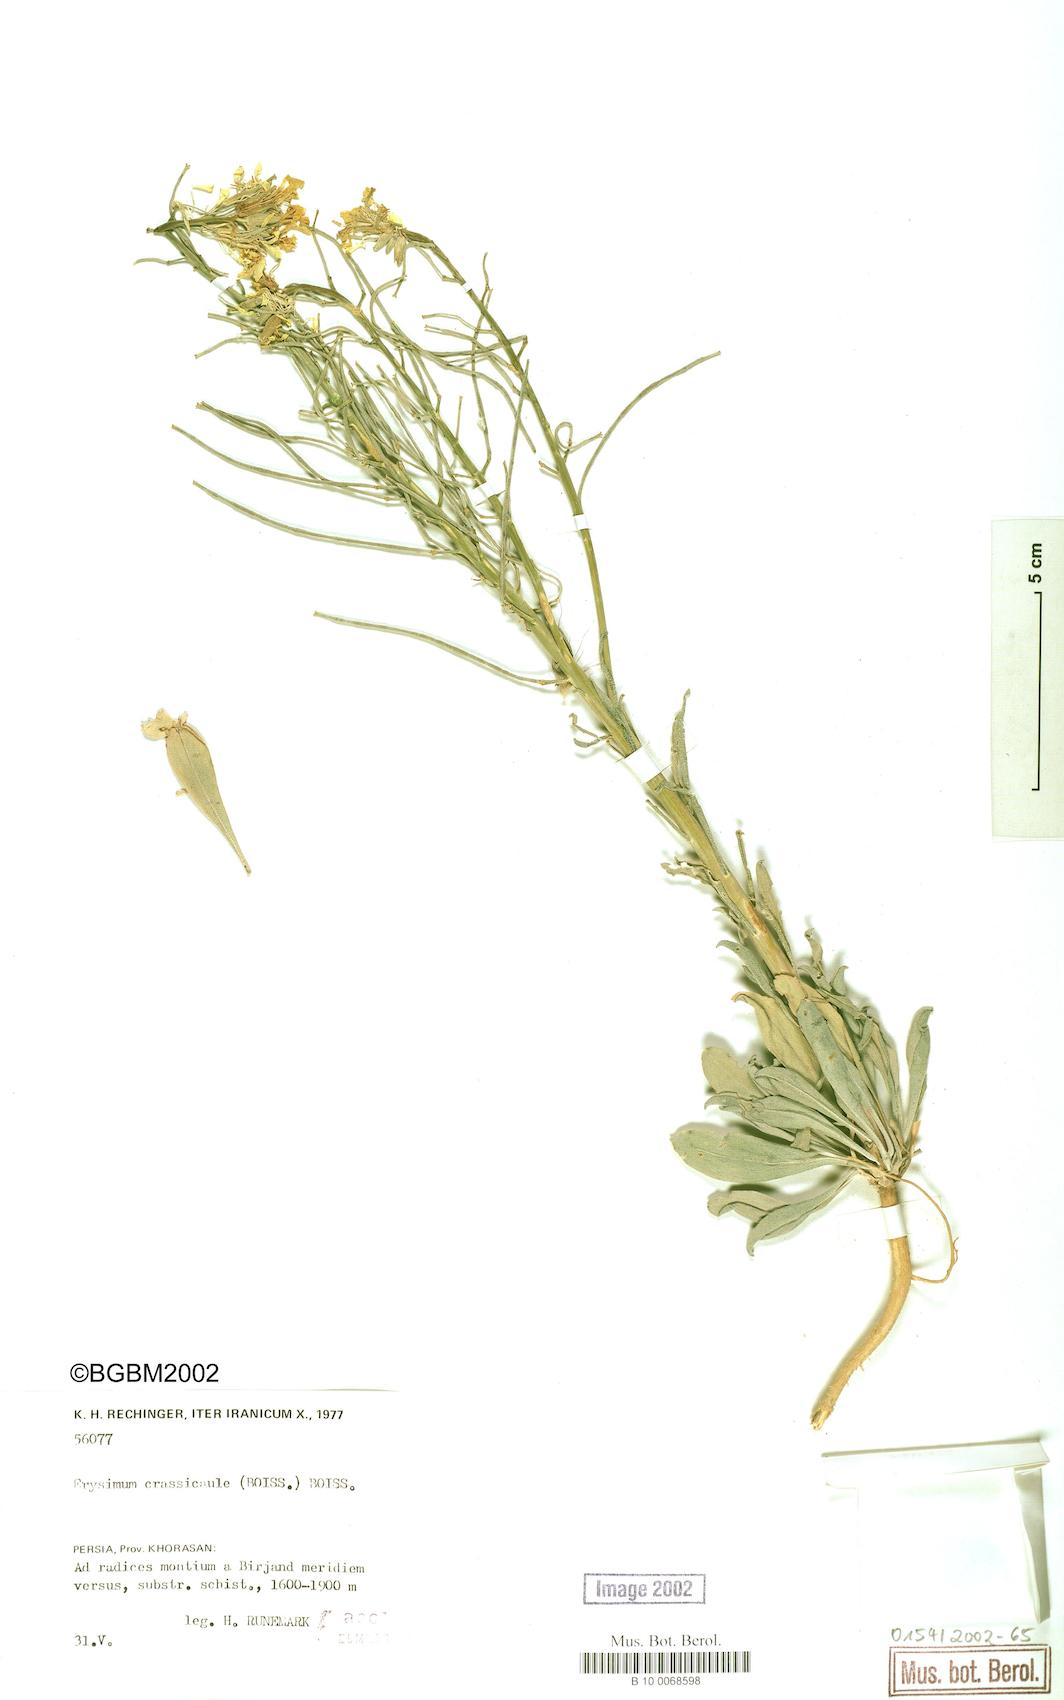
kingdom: Plantae
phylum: Tracheophyta
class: Magnoliopsida
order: Brassicales
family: Brassicaceae
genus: Erysimum
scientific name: Erysimum crassicaule
